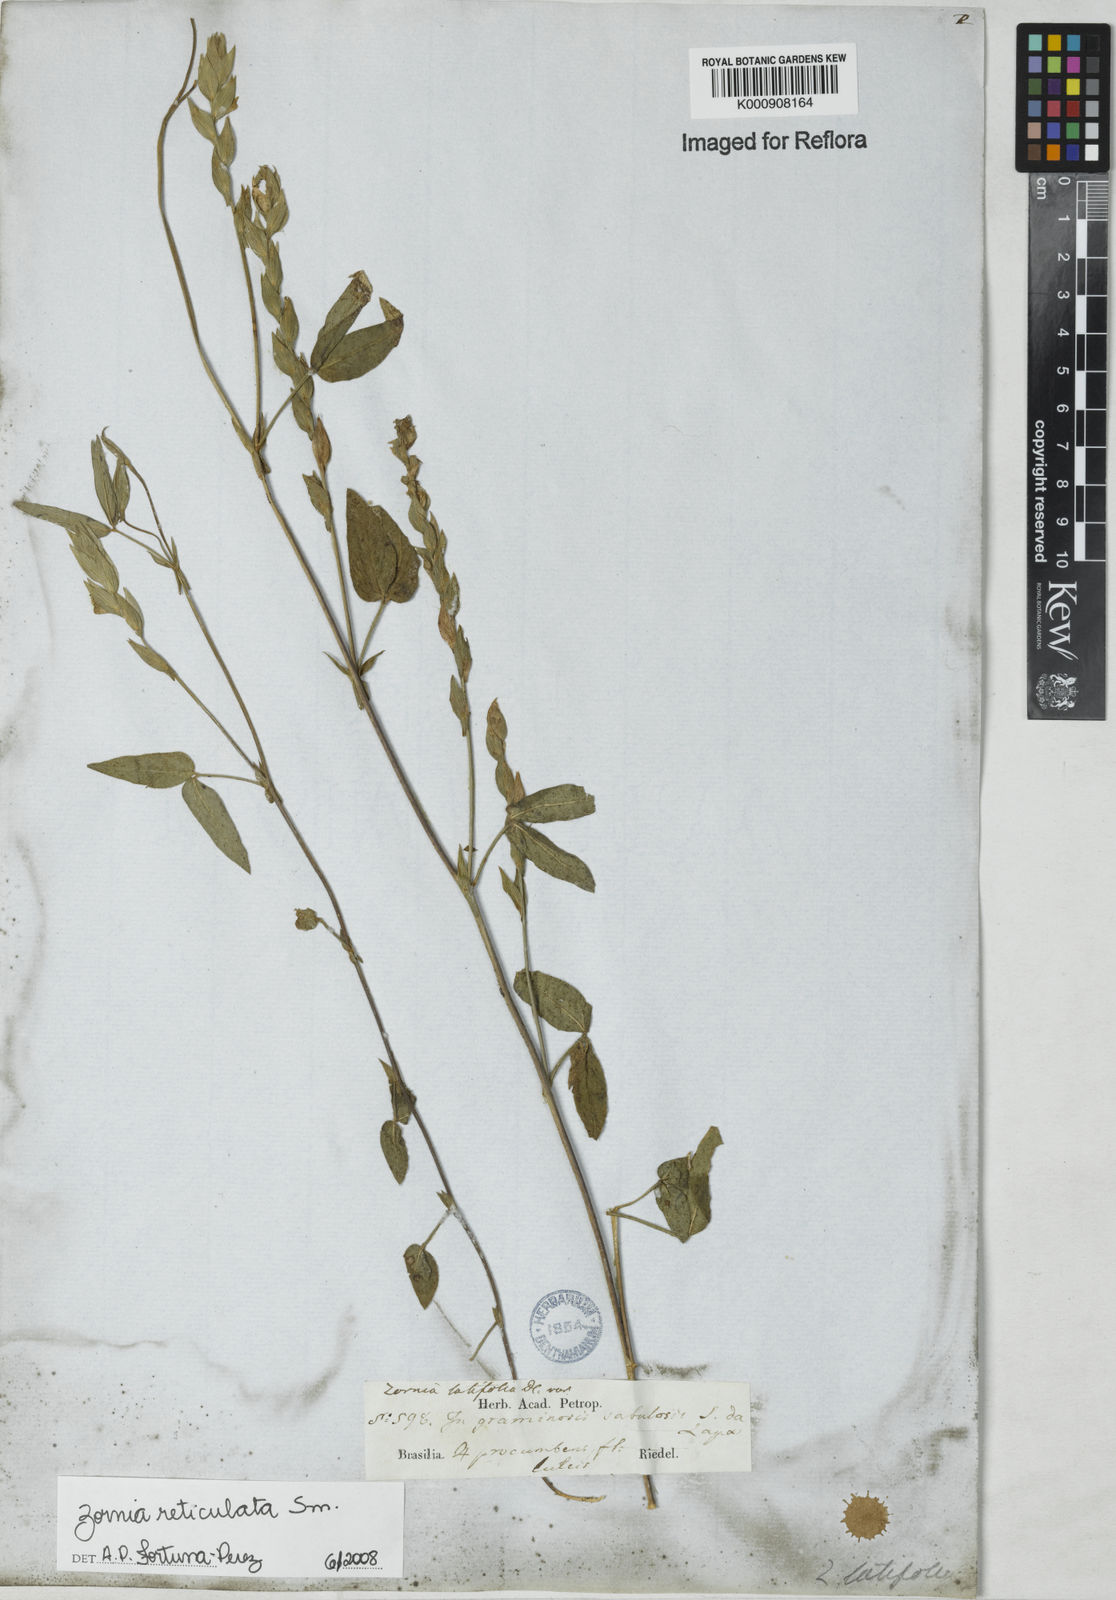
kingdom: Plantae
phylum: Tracheophyta
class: Magnoliopsida
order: Fabales
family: Fabaceae
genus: Zornia
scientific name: Zornia reticulata
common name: Reticulate viperina
